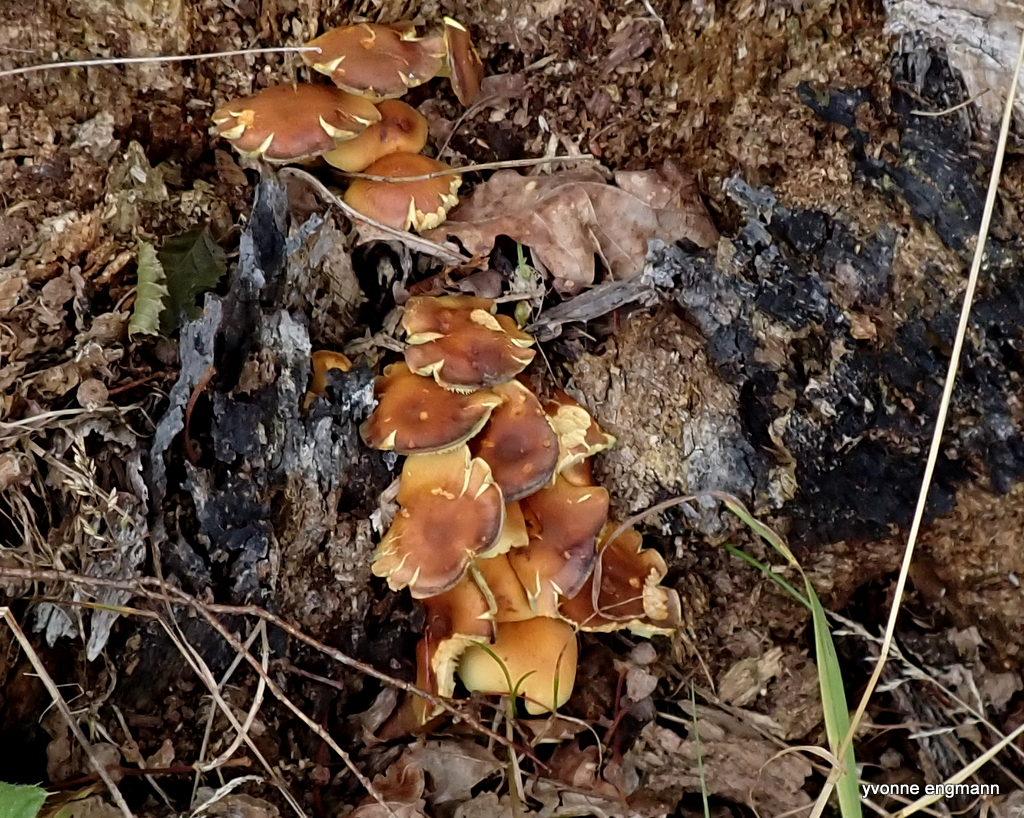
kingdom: Fungi
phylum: Basidiomycota
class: Agaricomycetes
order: Agaricales
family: Strophariaceae
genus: Hypholoma
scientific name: Hypholoma fasciculare
